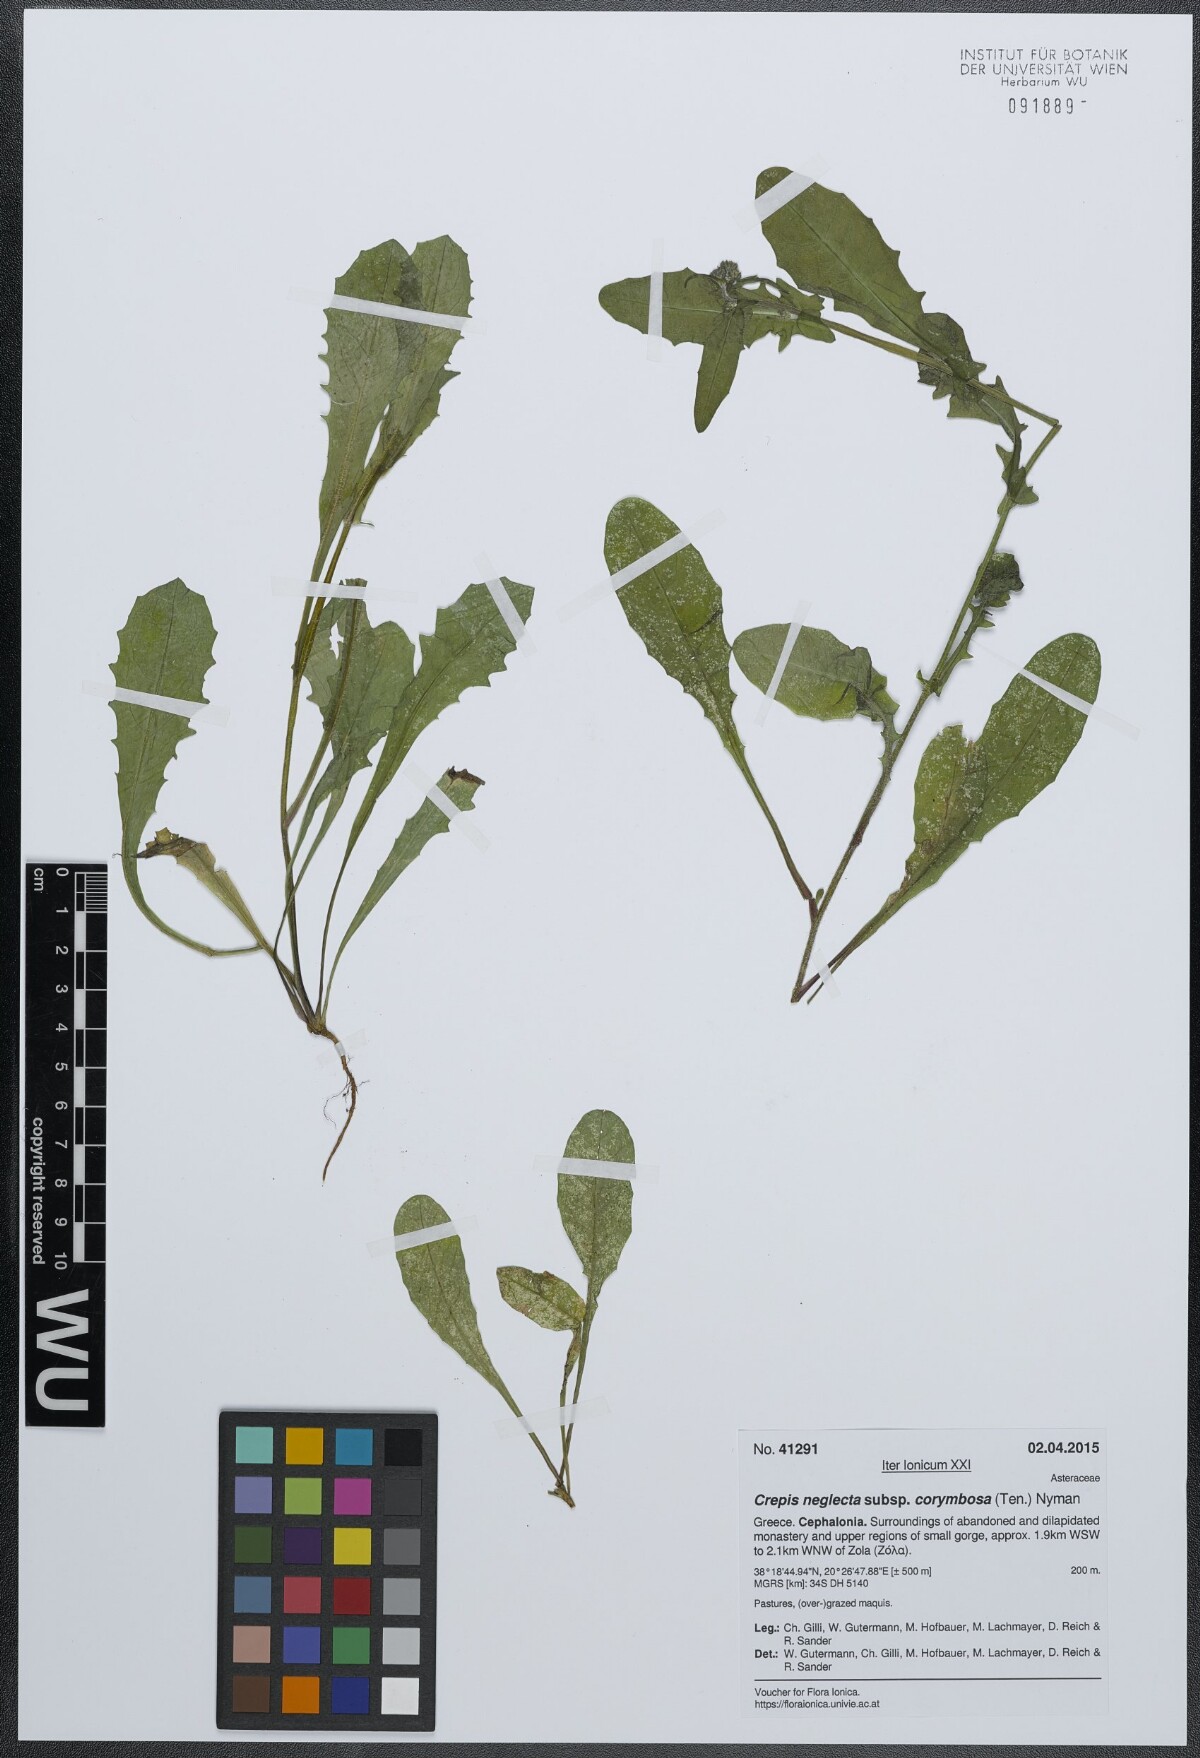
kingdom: Plantae
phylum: Tracheophyta
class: Magnoliopsida
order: Asterales
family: Asteraceae
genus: Crepis
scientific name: Crepis neglecta
